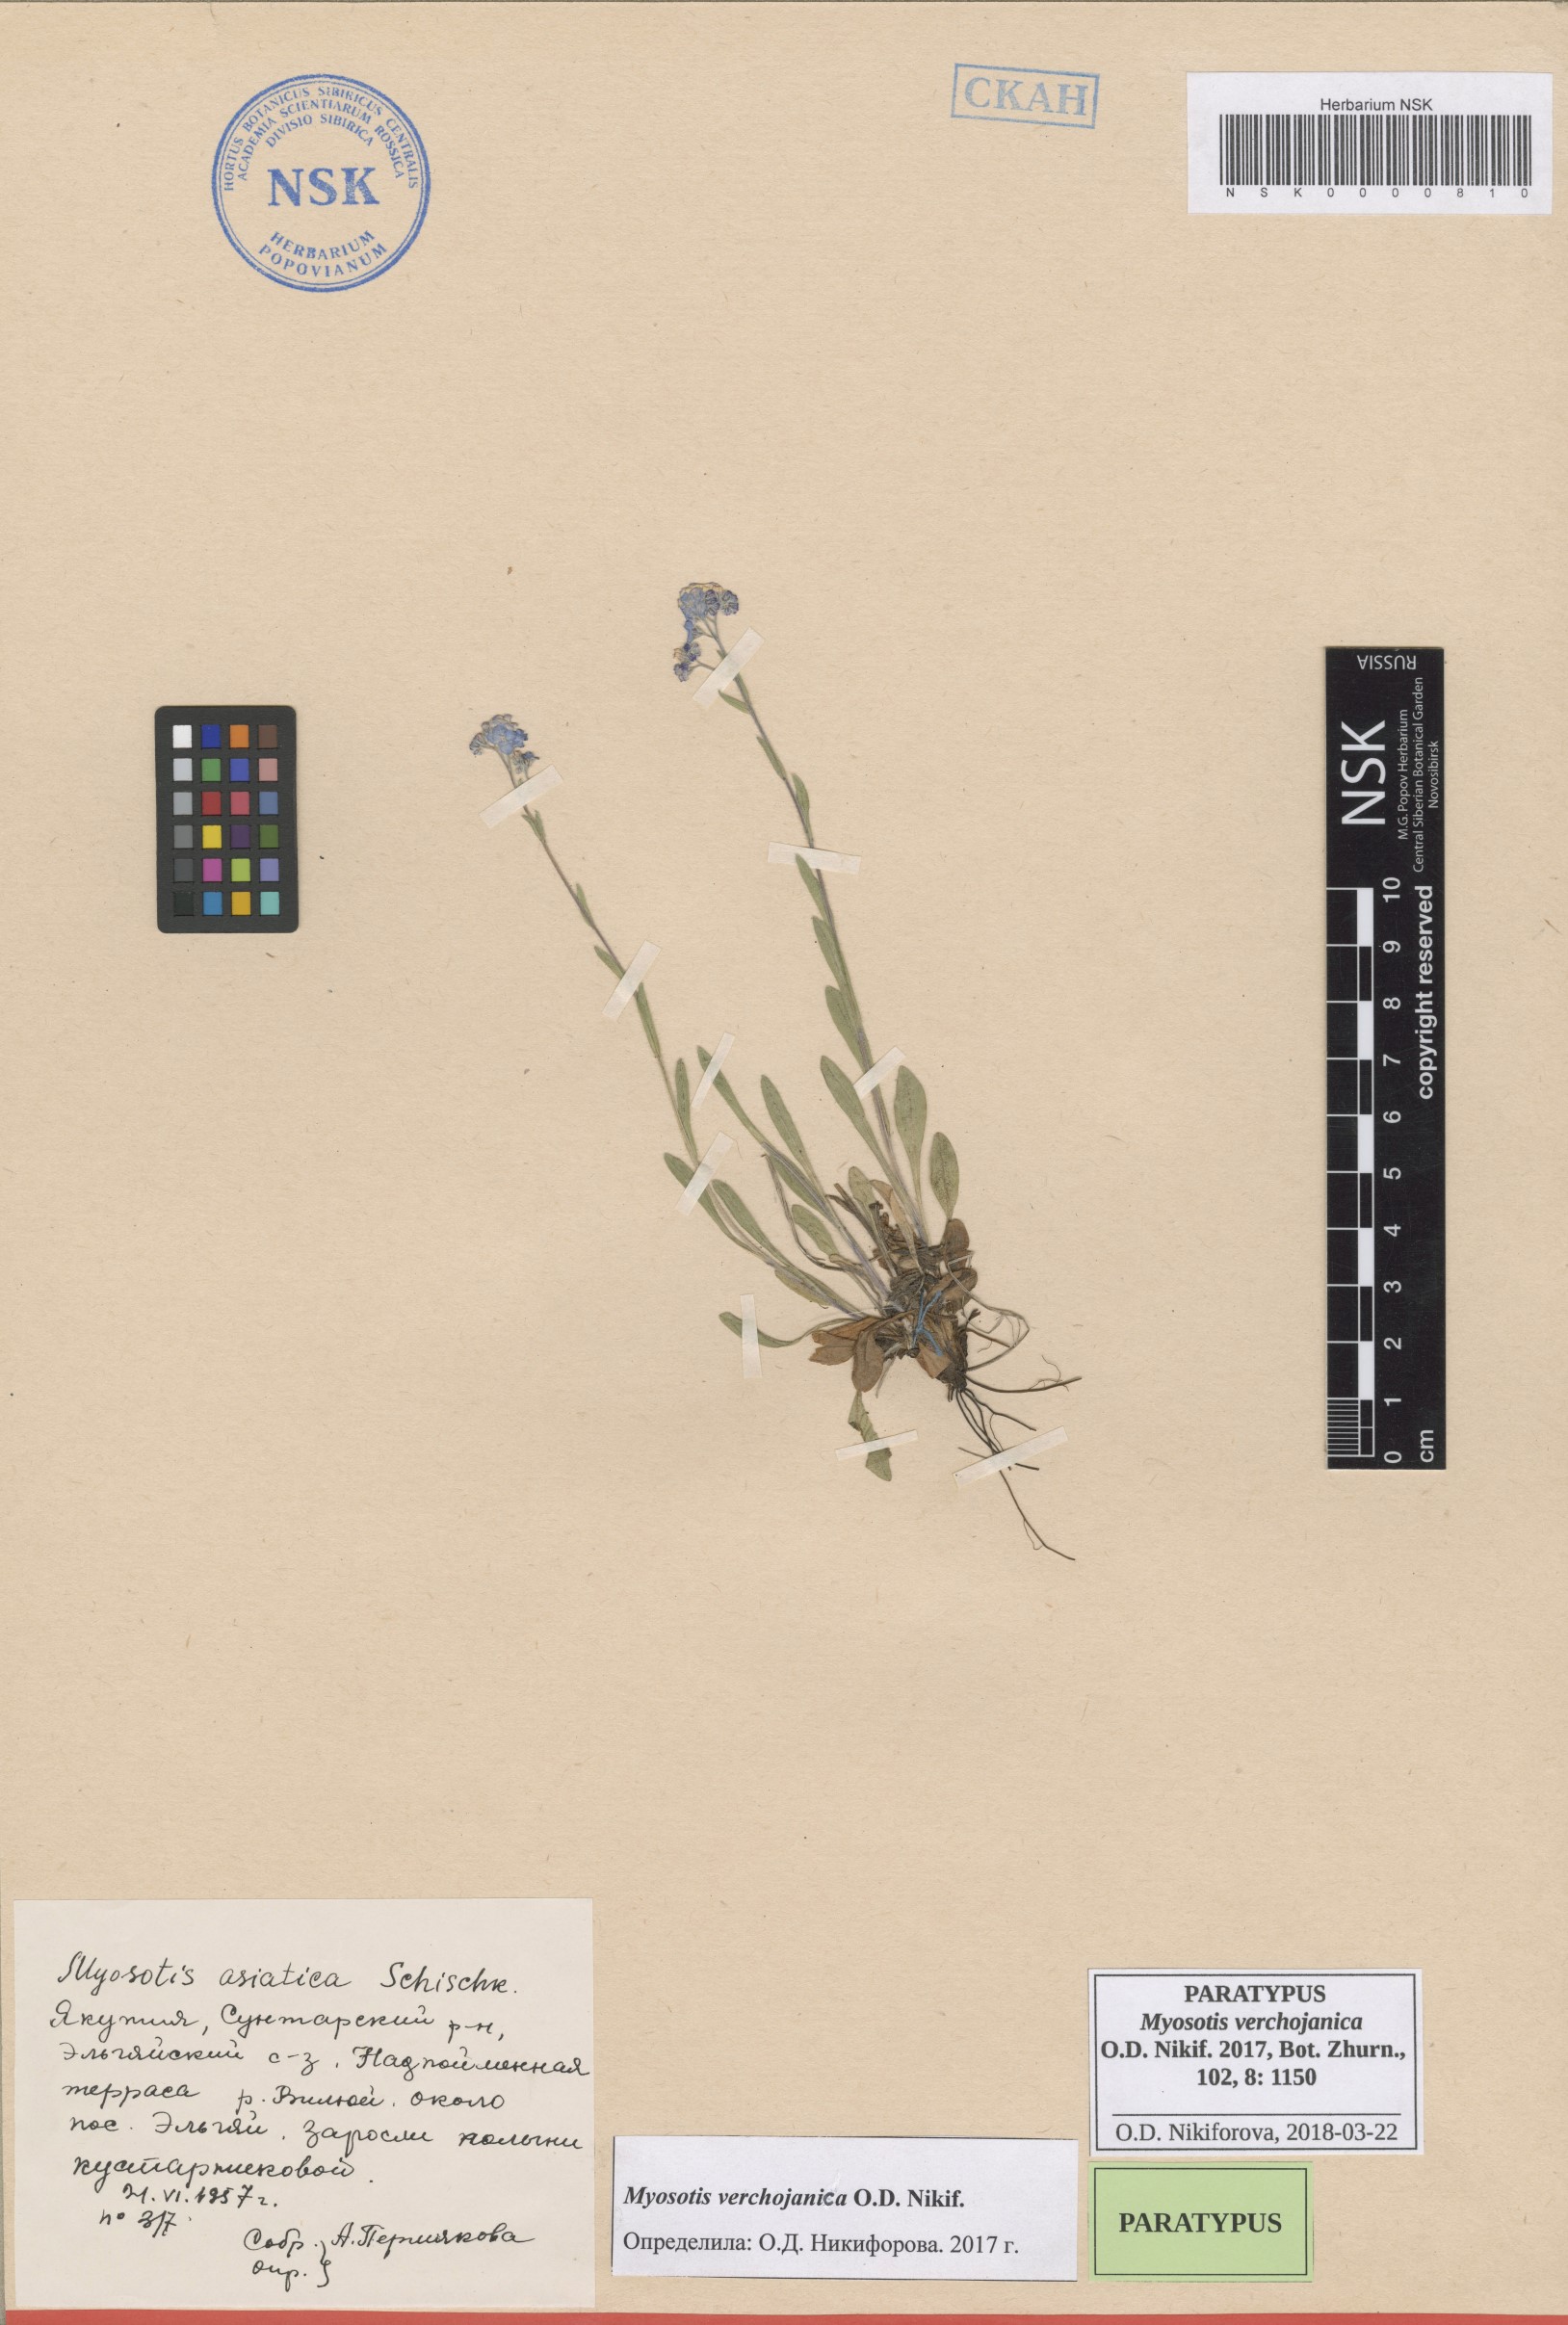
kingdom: Plantae
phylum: Tracheophyta
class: Magnoliopsida
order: Boraginales
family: Boraginaceae
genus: Myosotis
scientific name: Myosotis
